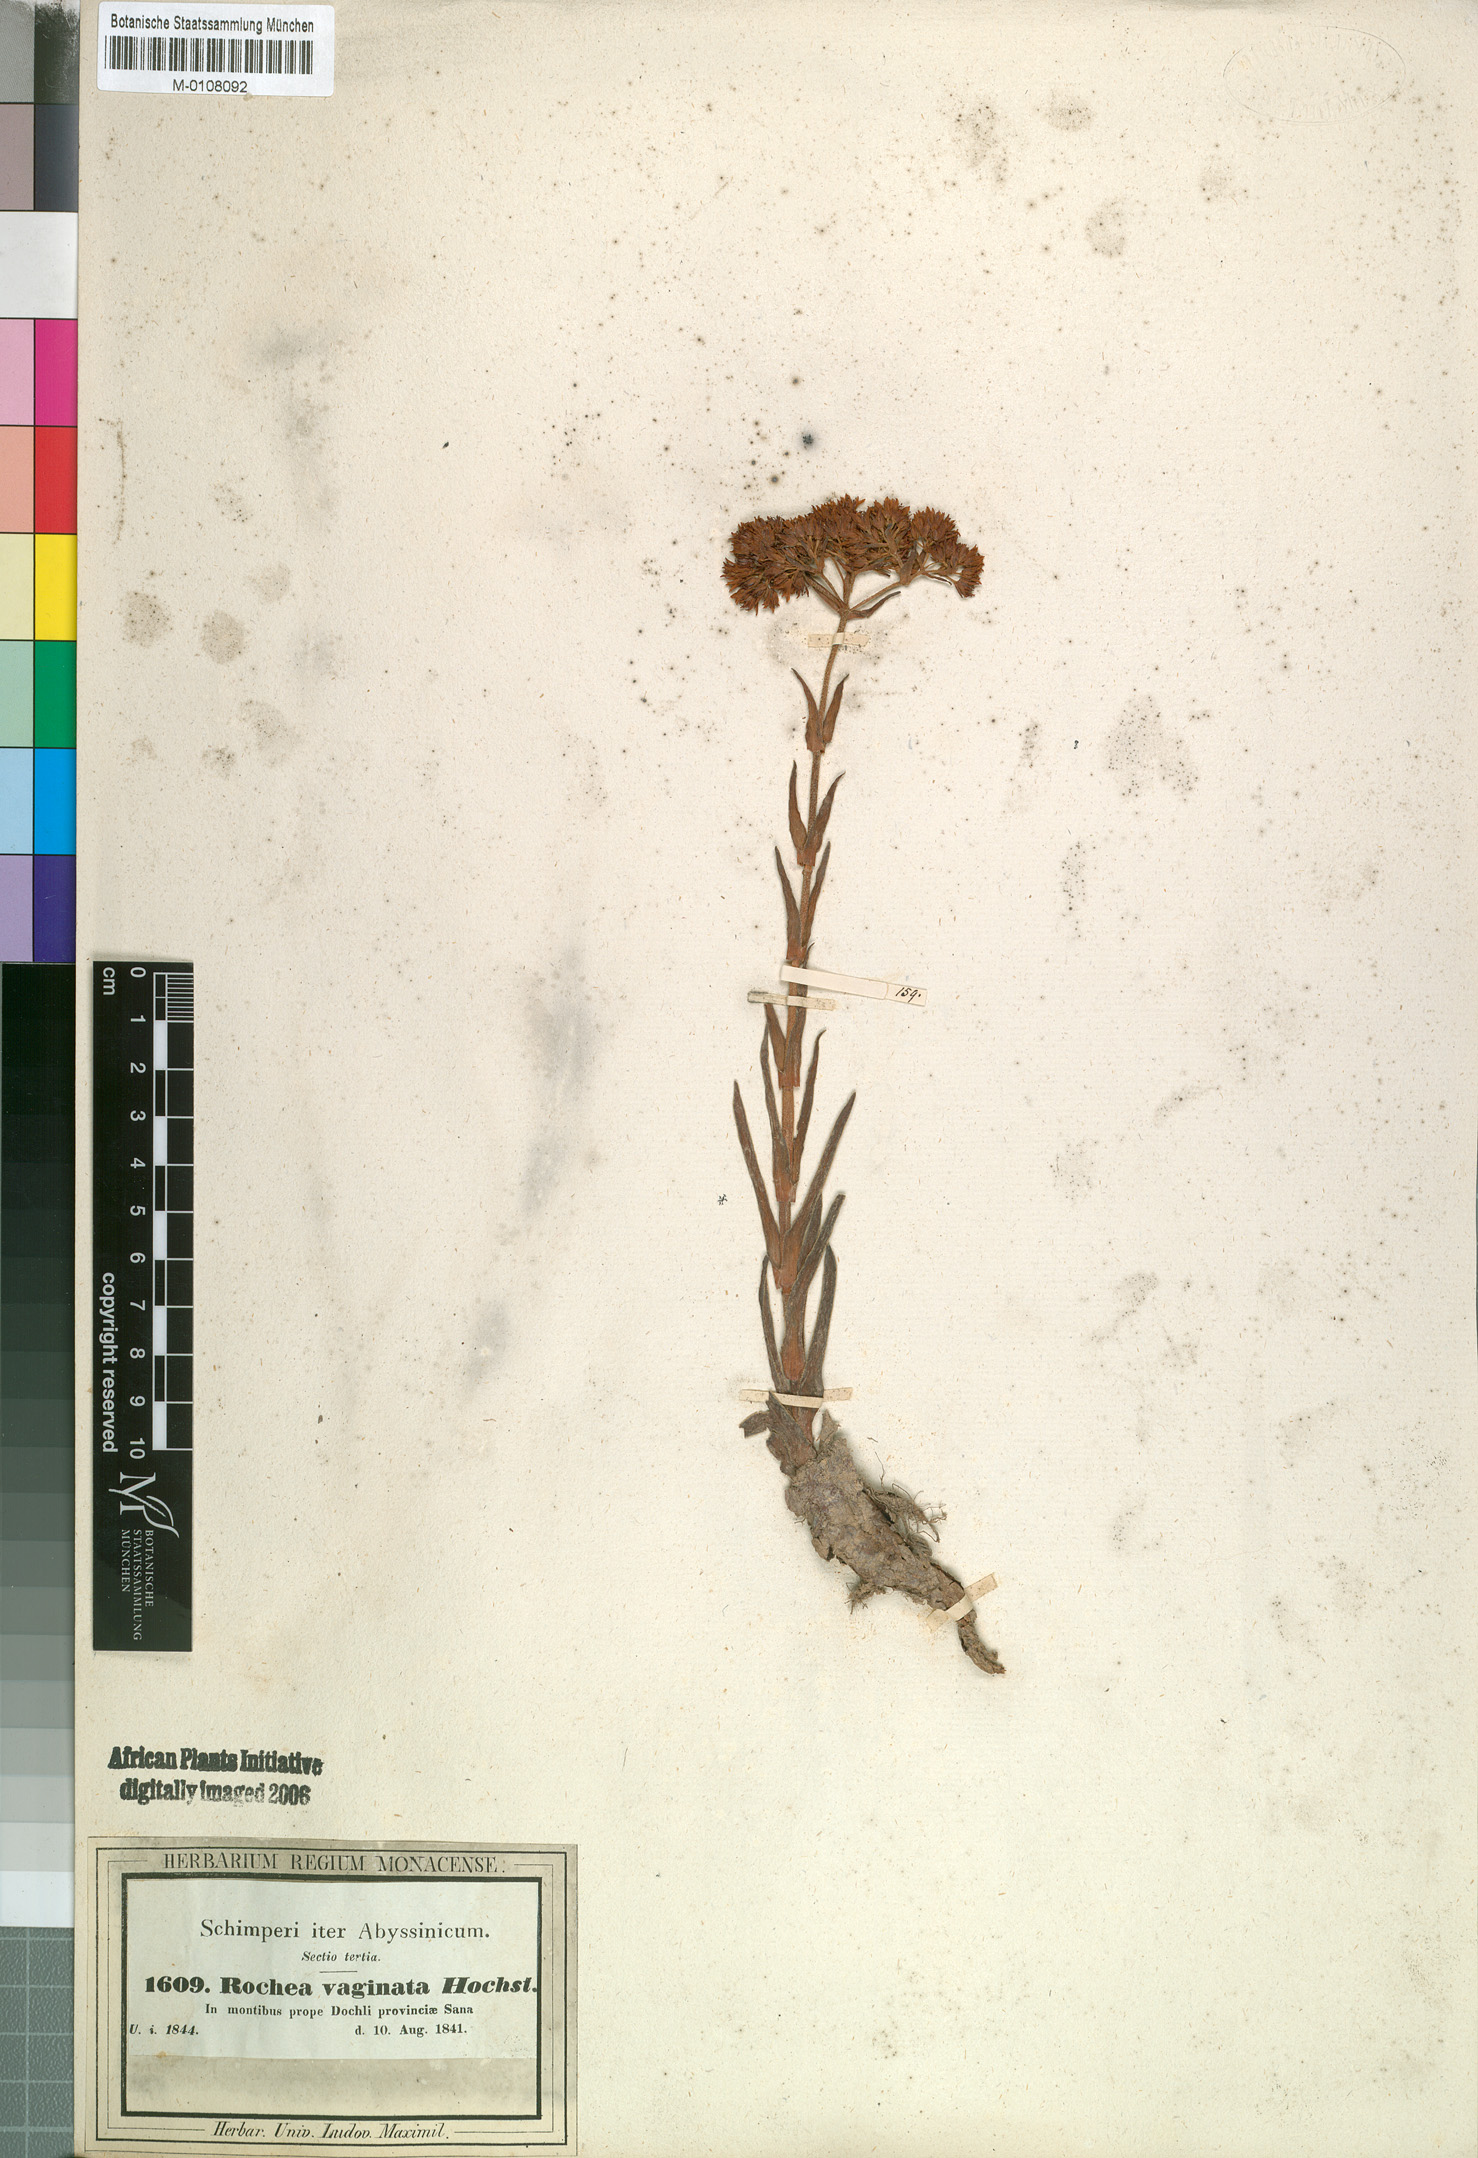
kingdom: Plantae
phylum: Tracheophyta
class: Magnoliopsida
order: Saxifragales
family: Crassulaceae
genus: Crassula
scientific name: Crassula alba
